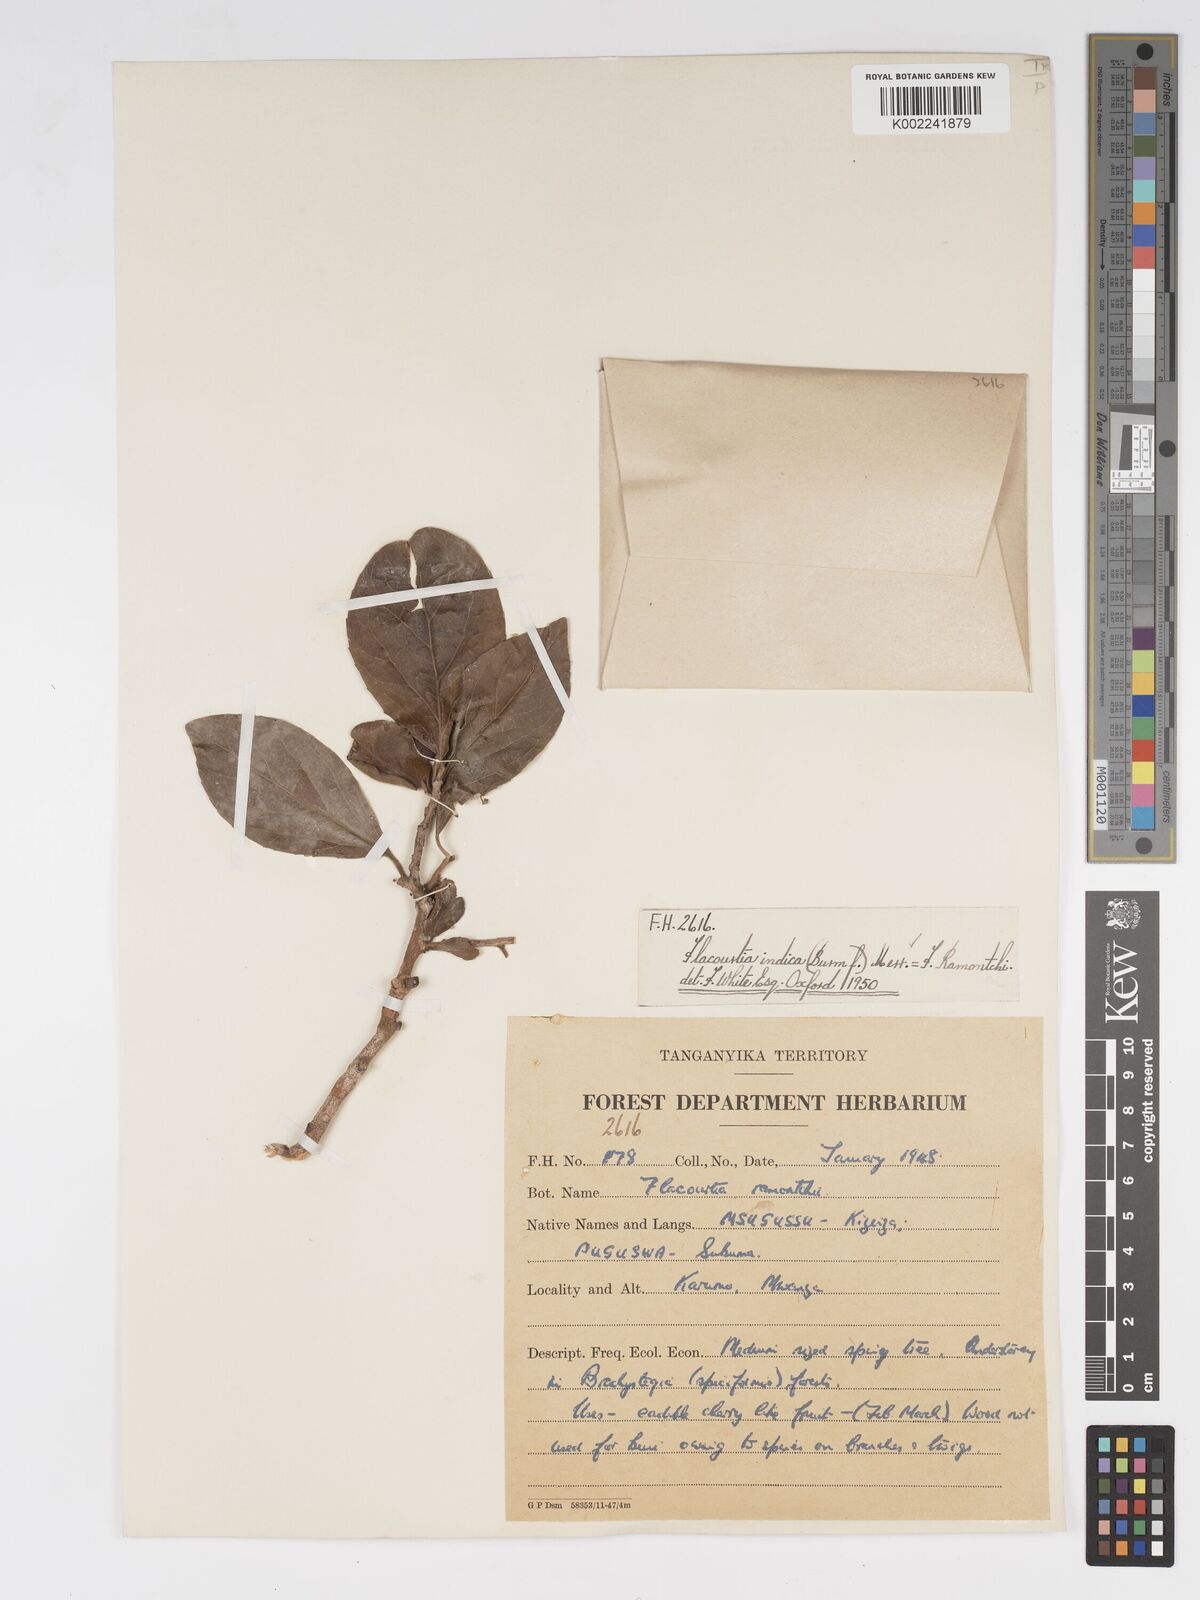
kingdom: Plantae
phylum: Tracheophyta
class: Magnoliopsida
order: Malpighiales
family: Salicaceae
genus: Flacourtia
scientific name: Flacourtia indica
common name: Governor's plum
